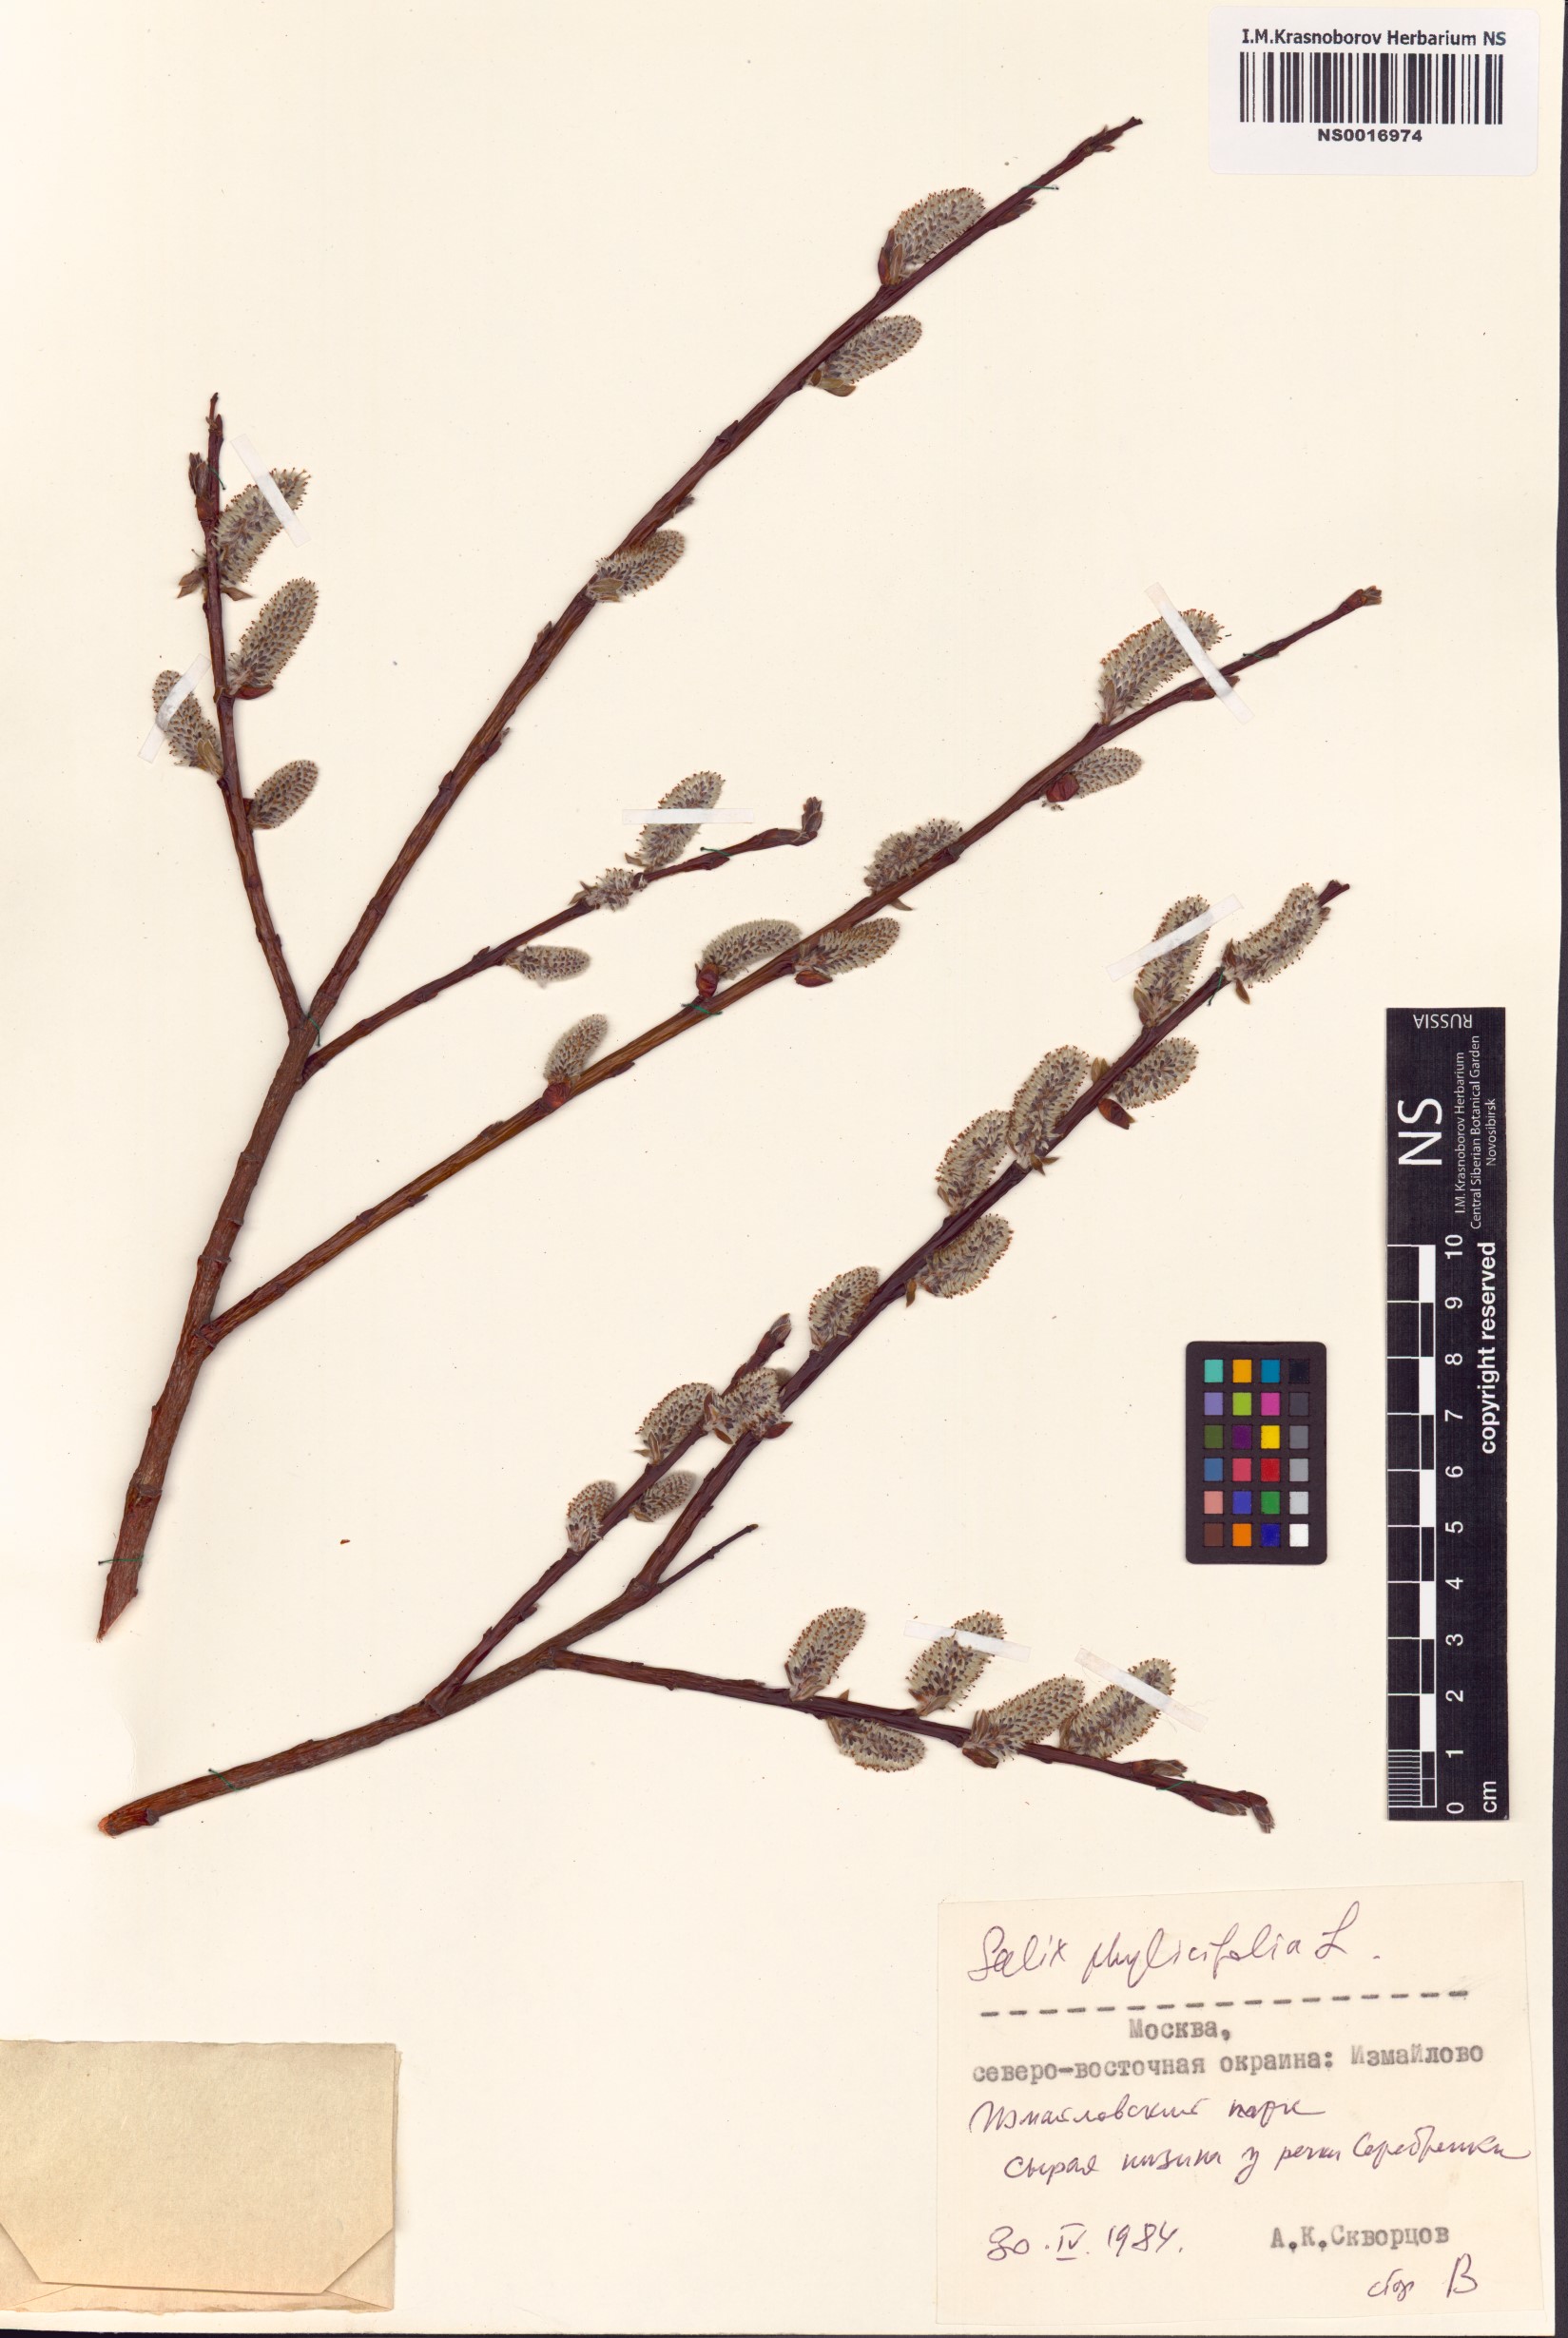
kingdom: Plantae
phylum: Tracheophyta
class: Magnoliopsida
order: Malpighiales
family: Salicaceae
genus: Salix
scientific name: Salix phylicifolia
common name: Tea-leaved willow
